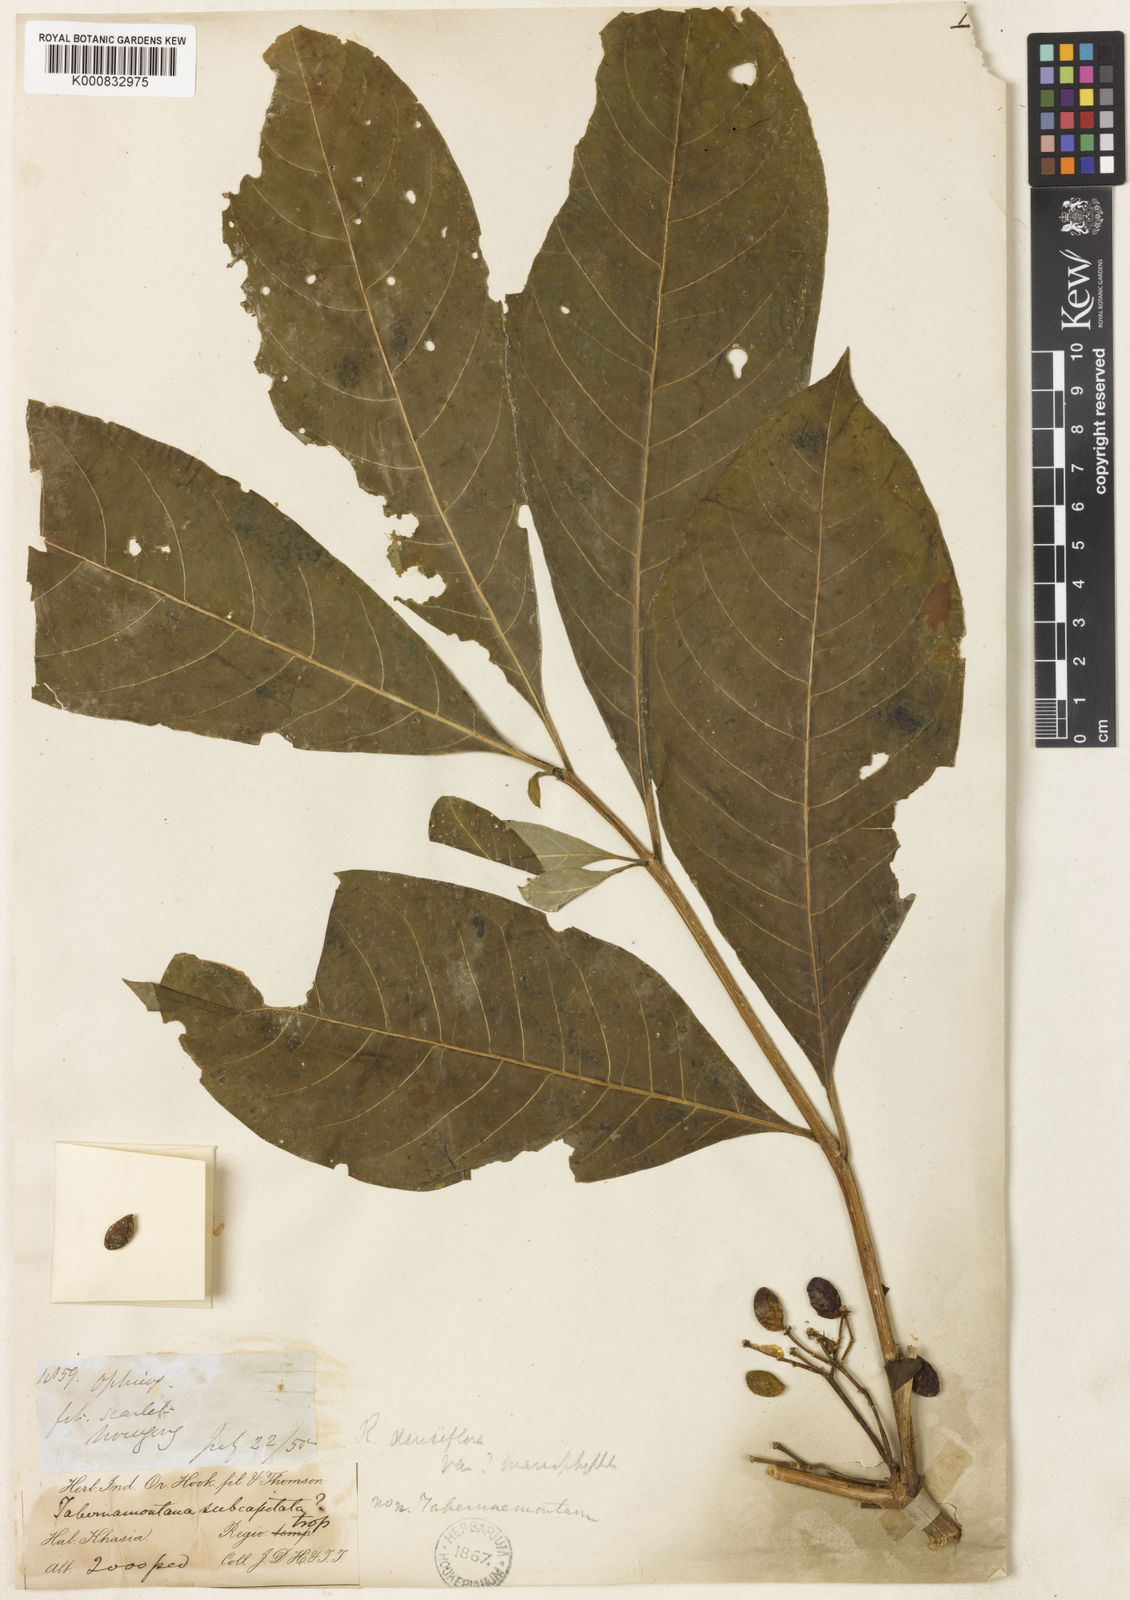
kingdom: Plantae
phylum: Tracheophyta
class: Magnoliopsida
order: Gentianales
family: Apocynaceae
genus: Rauvolfia
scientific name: Rauvolfia verticillata
